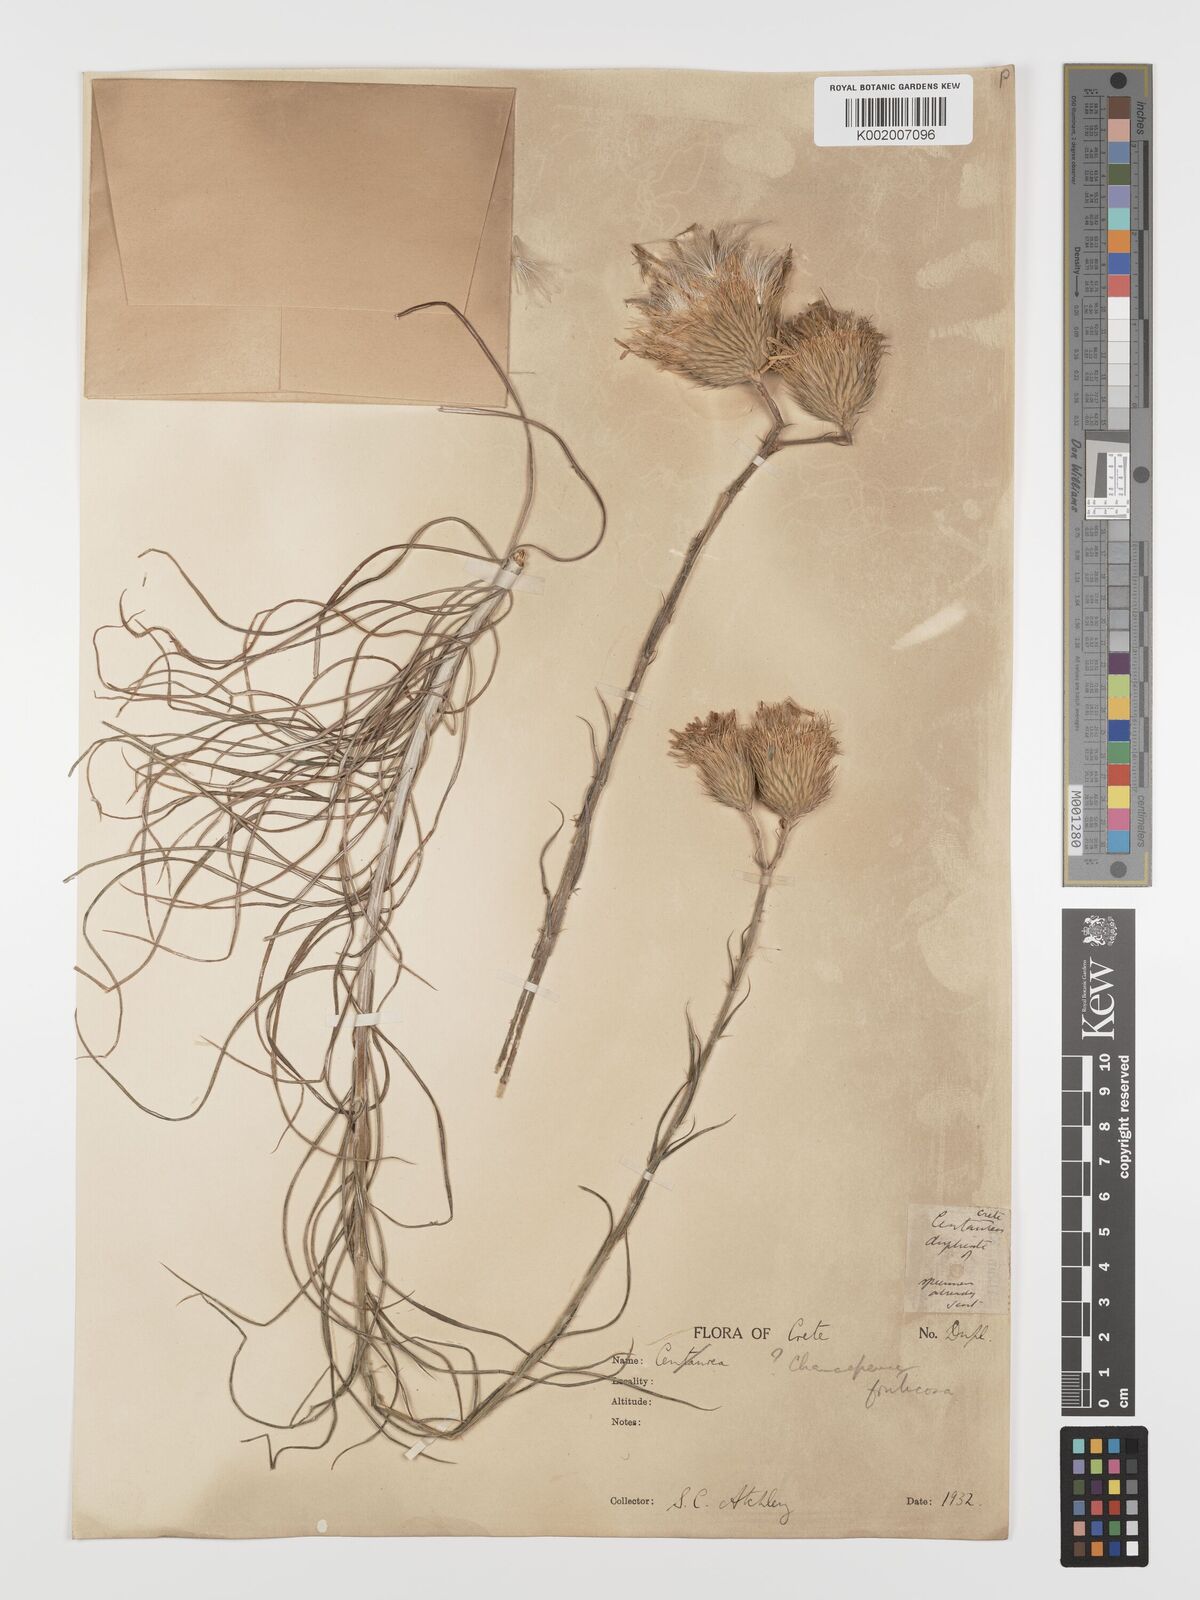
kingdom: Plantae
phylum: Tracheophyta
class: Magnoliopsida
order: Asterales
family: Asteraceae
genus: Ptilostemon
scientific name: Ptilostemon gnaphaloides
